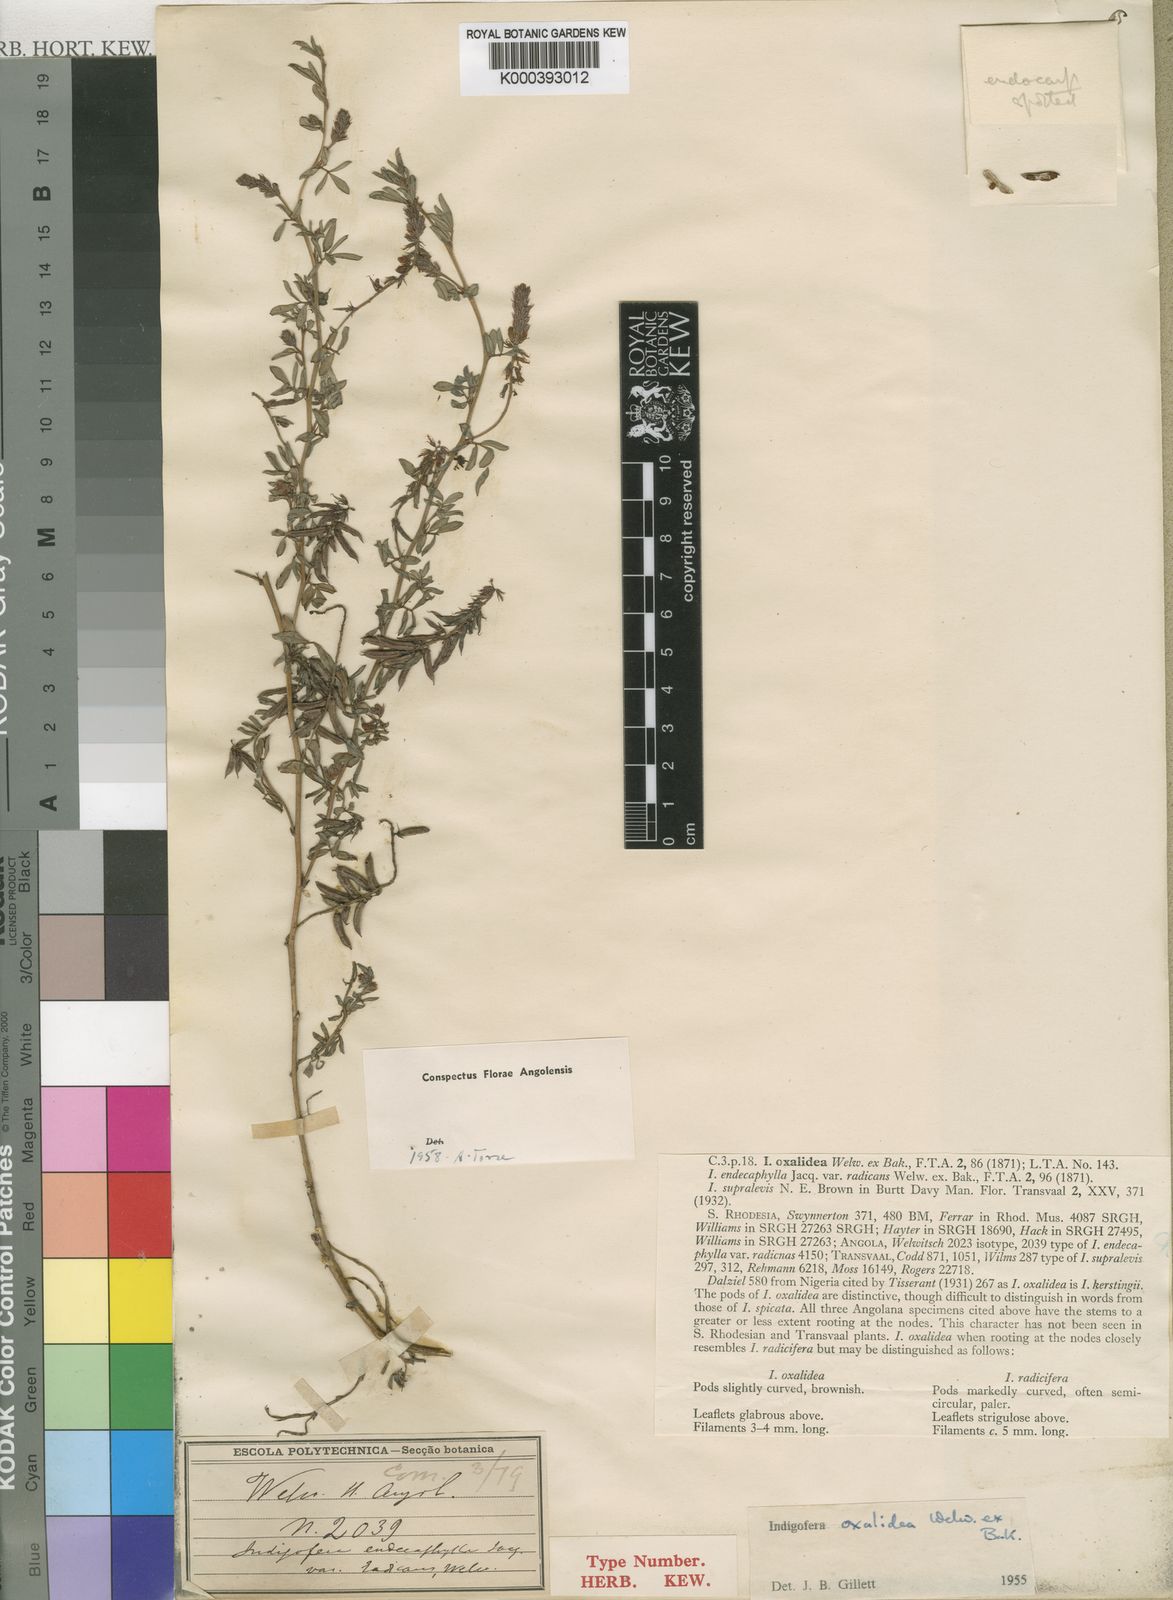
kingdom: Plantae
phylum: Tracheophyta
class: Magnoliopsida
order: Fabales
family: Fabaceae
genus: Indigofera
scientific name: Indigofera oxalidea
